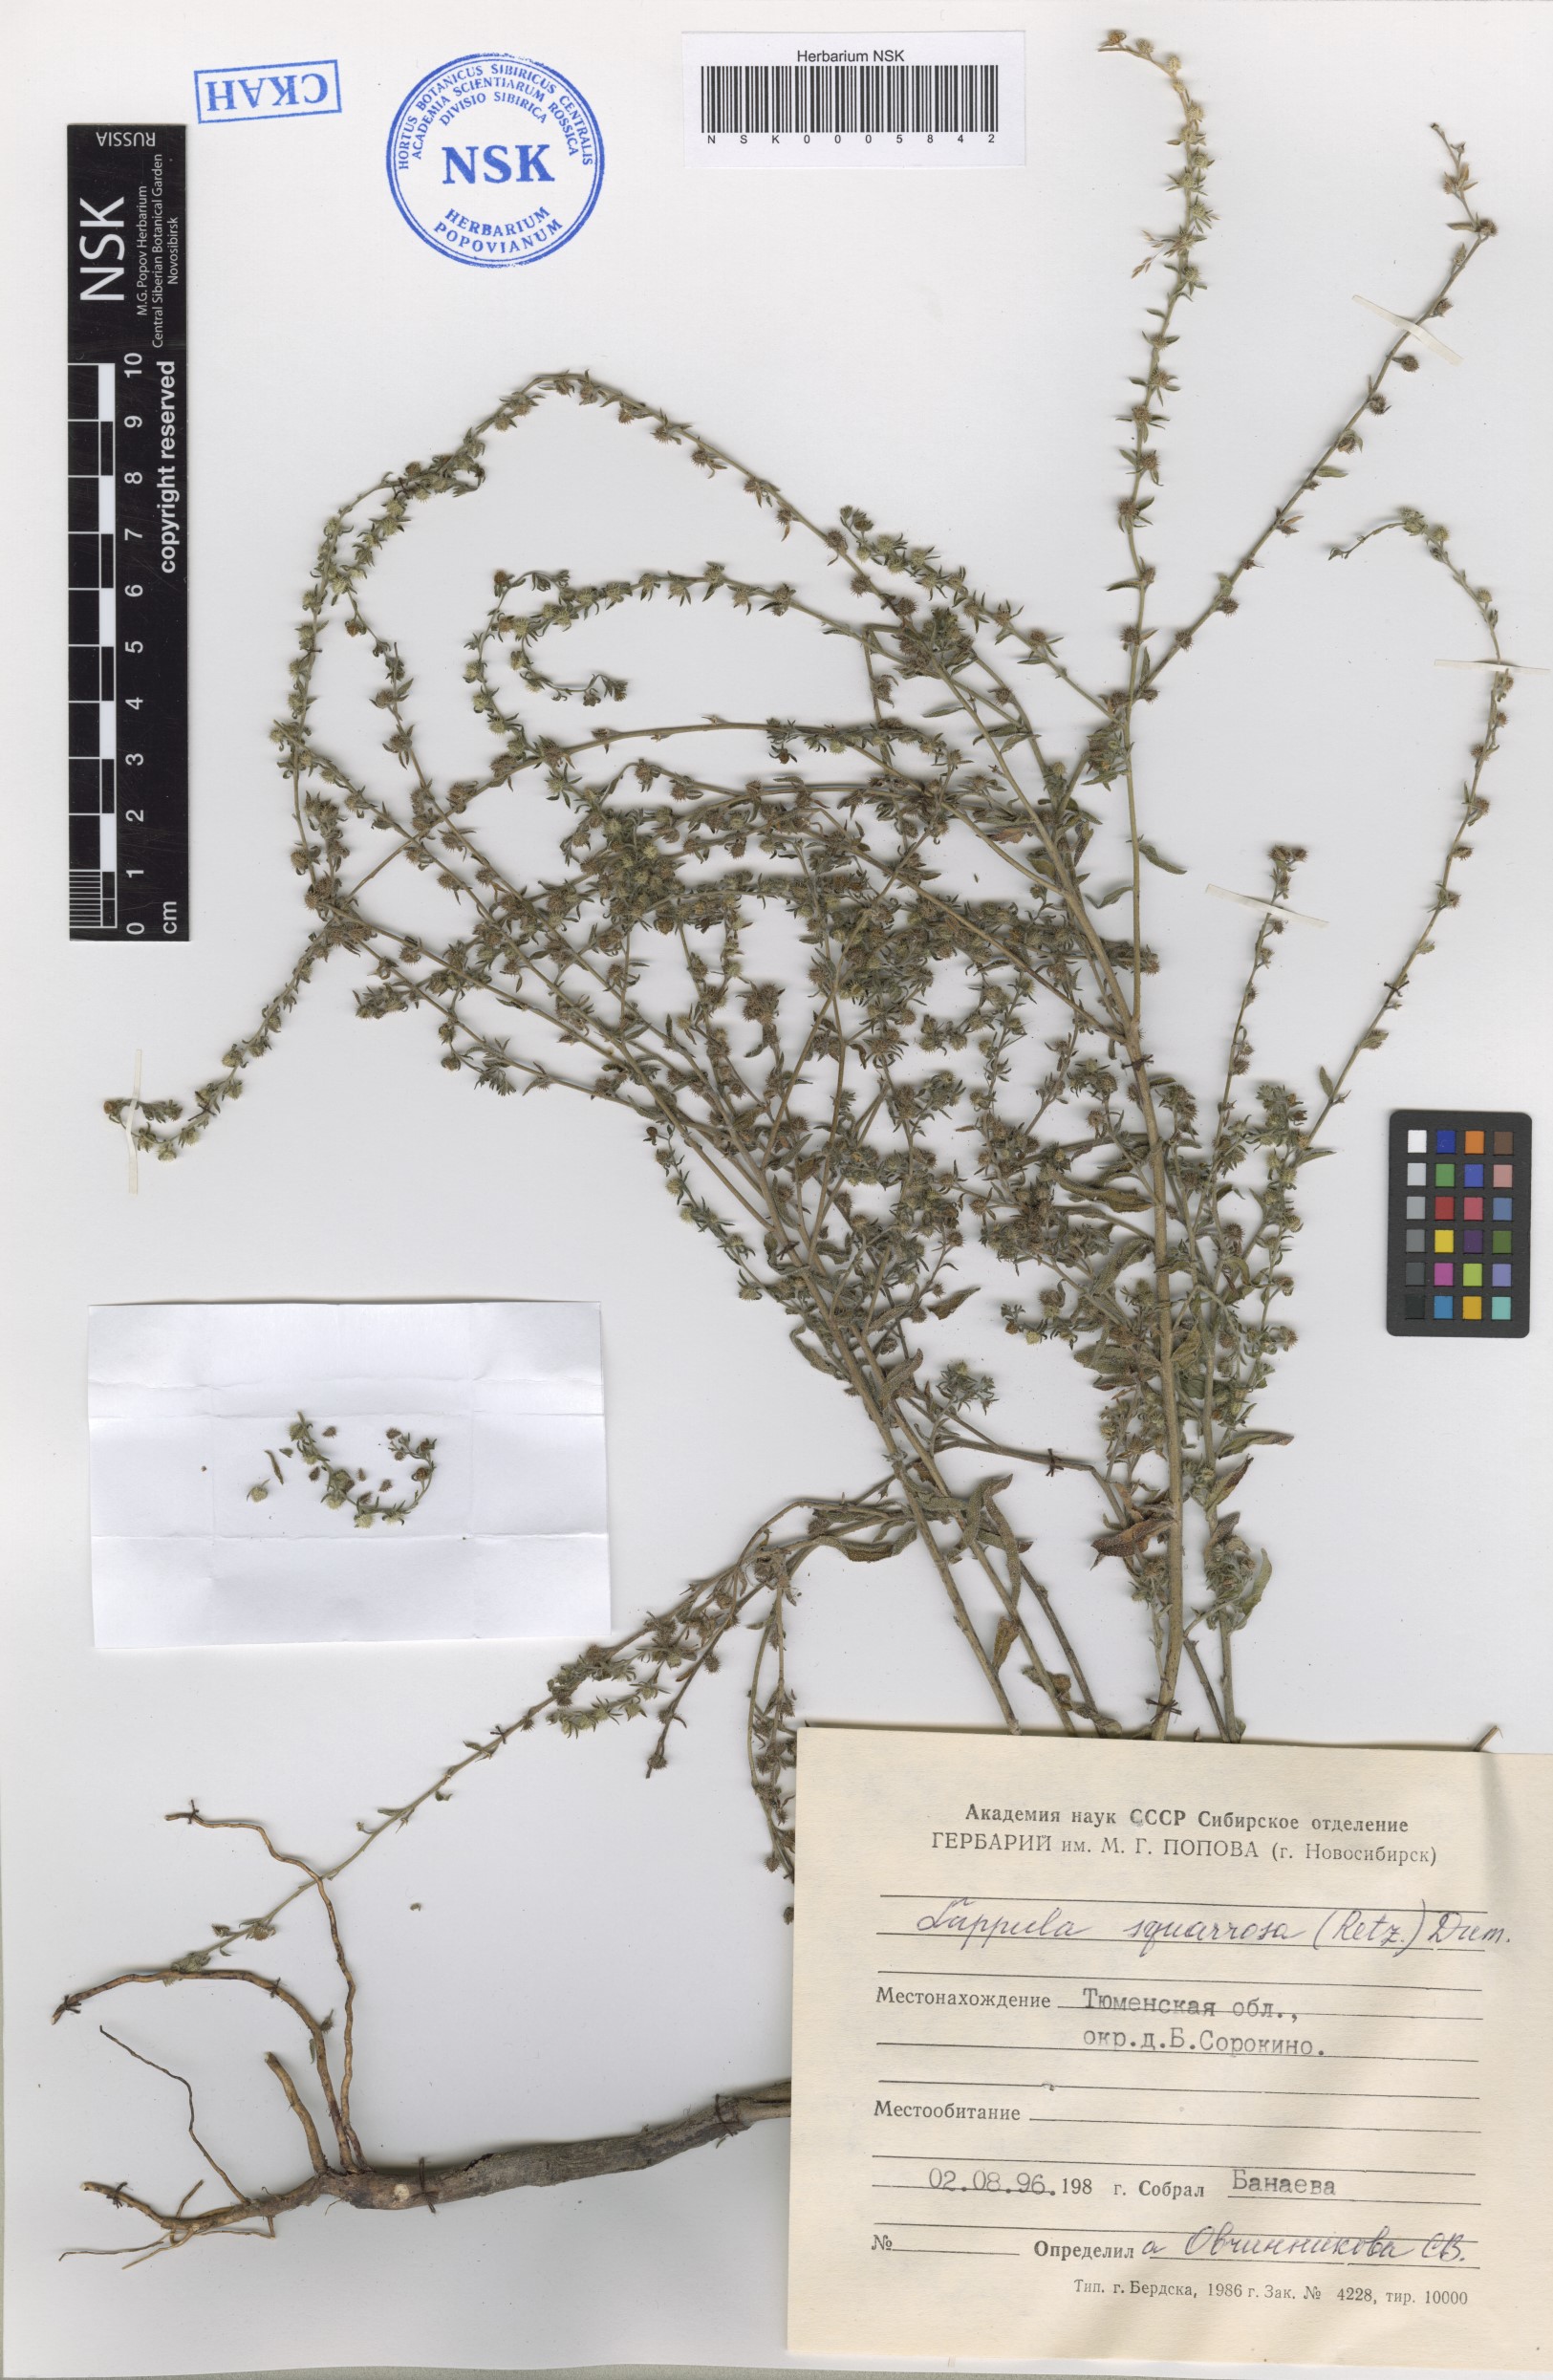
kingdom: Plantae
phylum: Tracheophyta
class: Magnoliopsida
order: Boraginales
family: Boraginaceae
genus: Lappula
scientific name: Lappula squarrosa
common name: European stickseed
